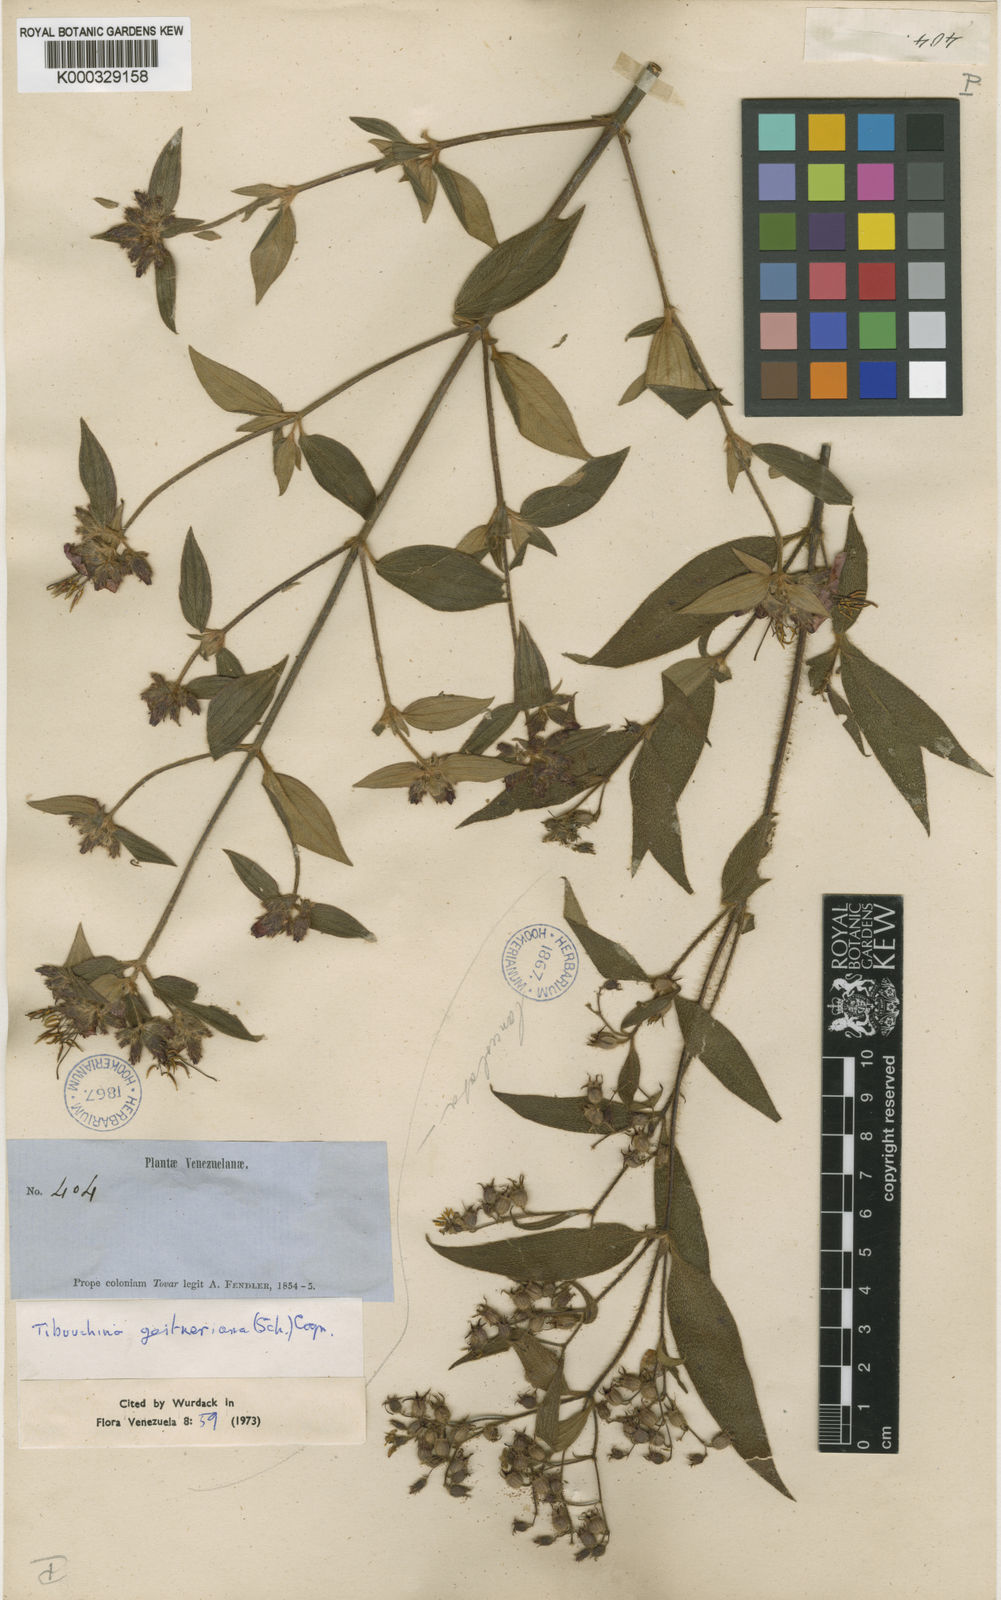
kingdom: Plantae
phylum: Tracheophyta
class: Magnoliopsida
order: Myrtales
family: Melastomataceae
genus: Chaetogastra
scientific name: Chaetogastra geitneriana
